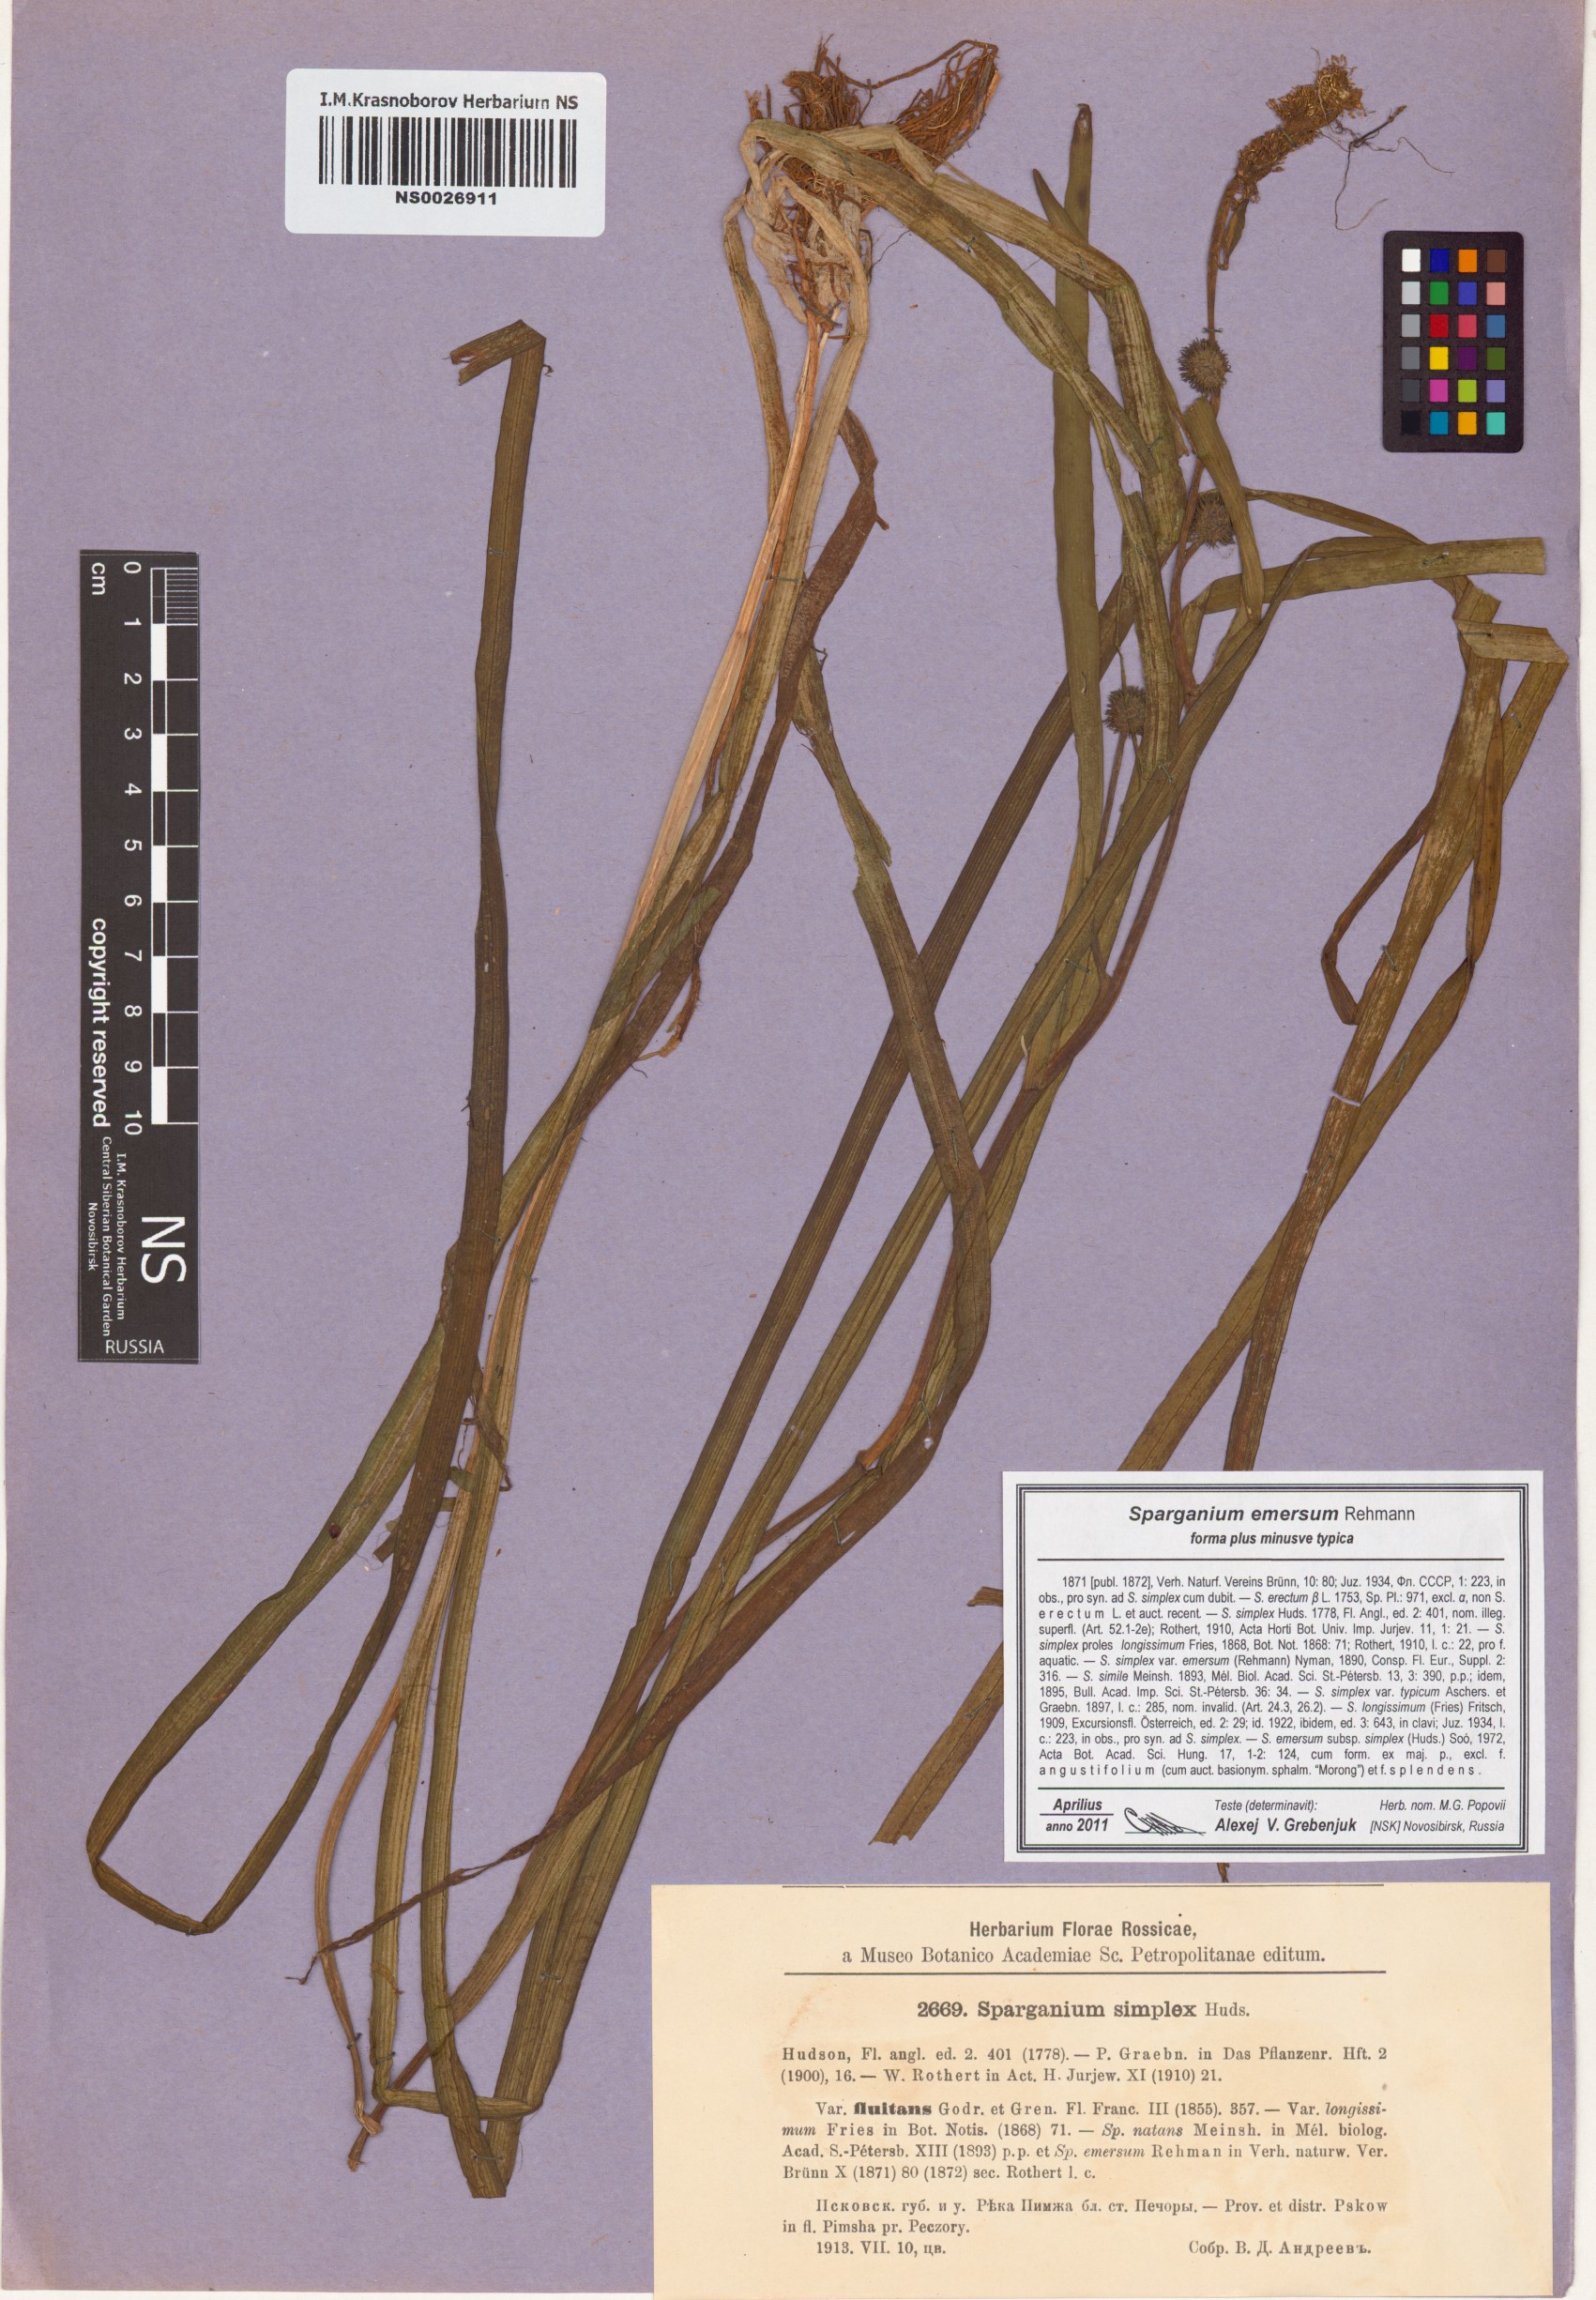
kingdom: Plantae
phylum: Tracheophyta
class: Liliopsida
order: Poales
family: Typhaceae
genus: Sparganium
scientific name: Sparganium emersum
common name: Unbranched bur-reed
